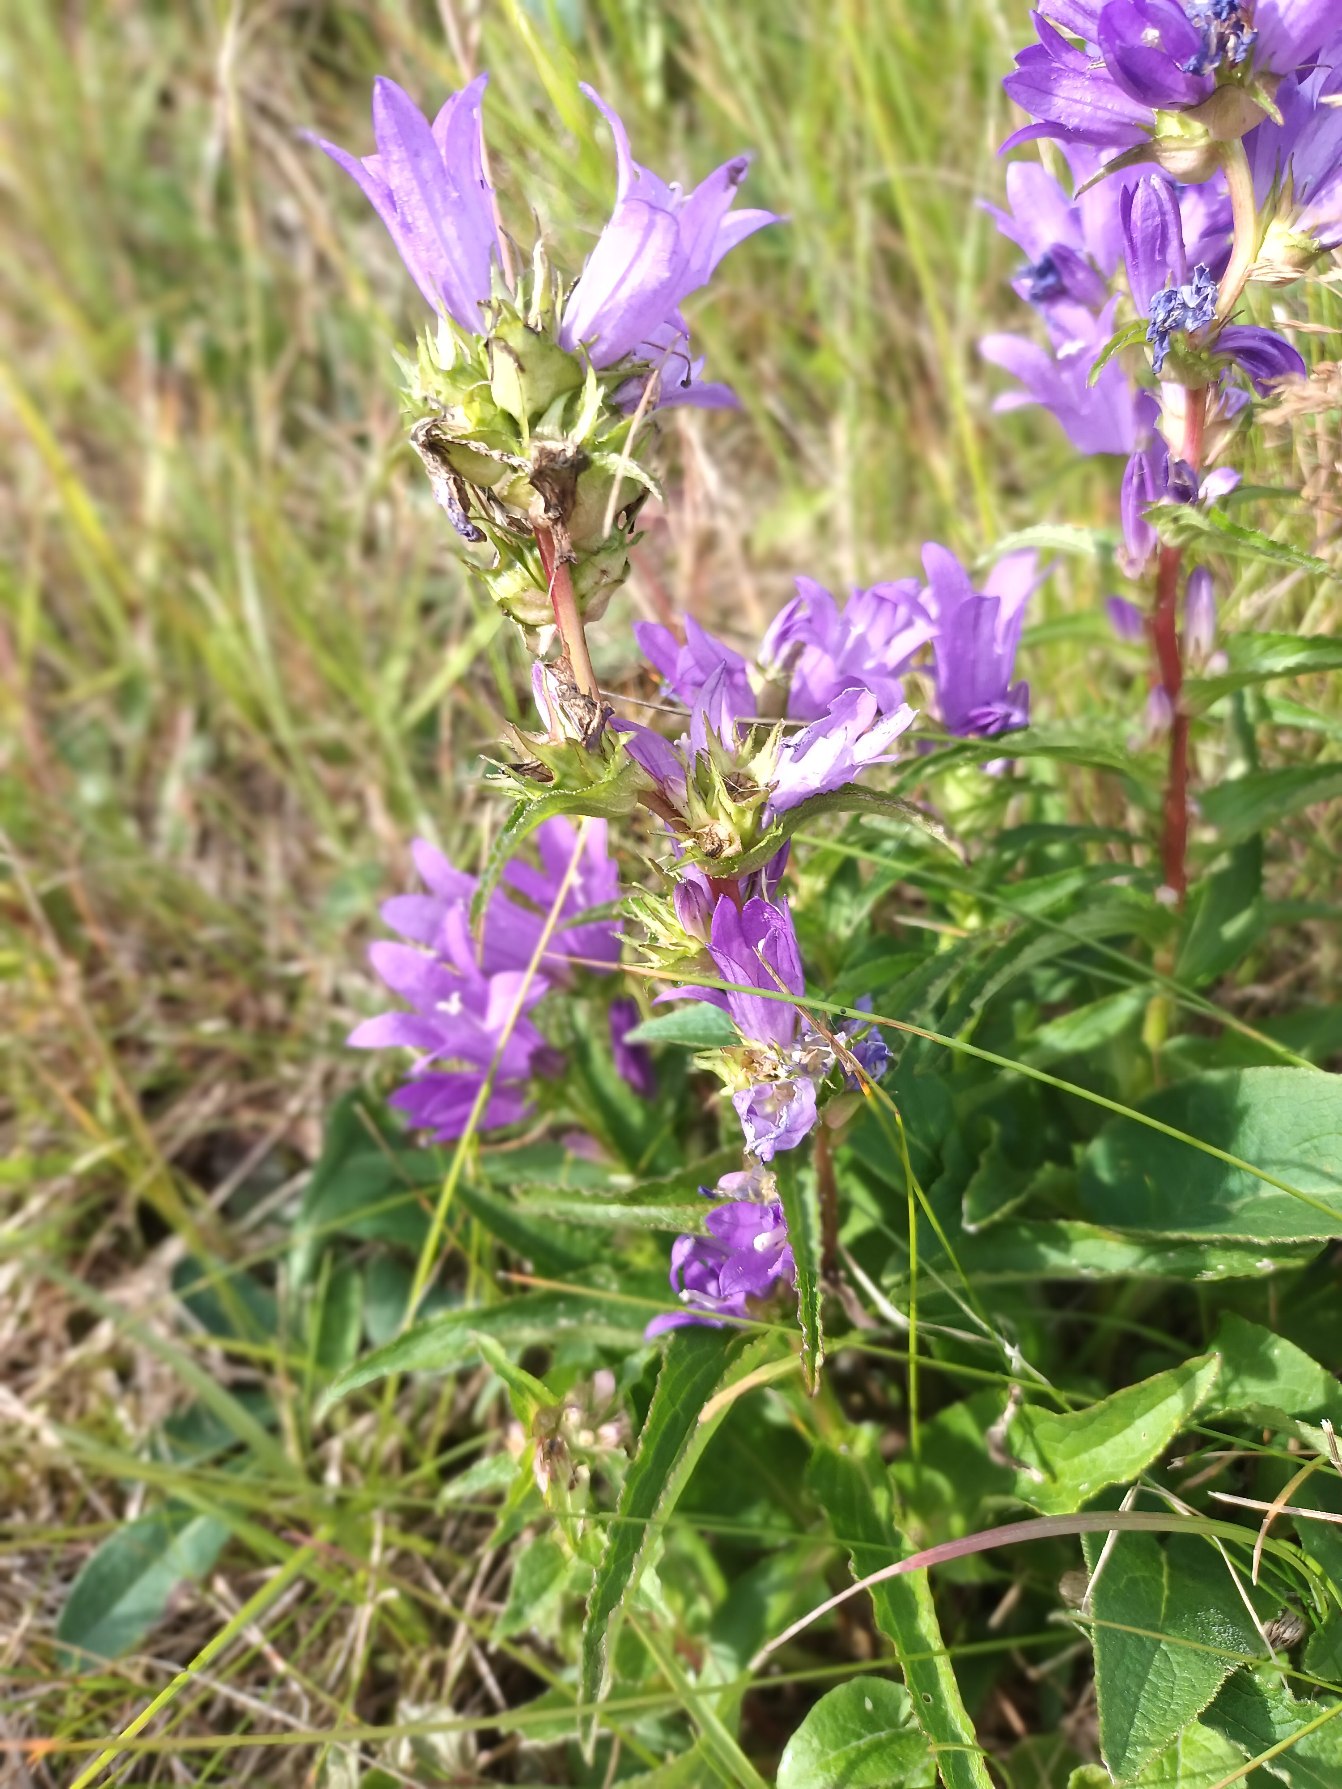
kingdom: Plantae
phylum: Tracheophyta
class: Magnoliopsida
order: Asterales
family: Campanulaceae
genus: Campanula
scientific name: Campanula glomerata
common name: Nøgleblomstret klokke
